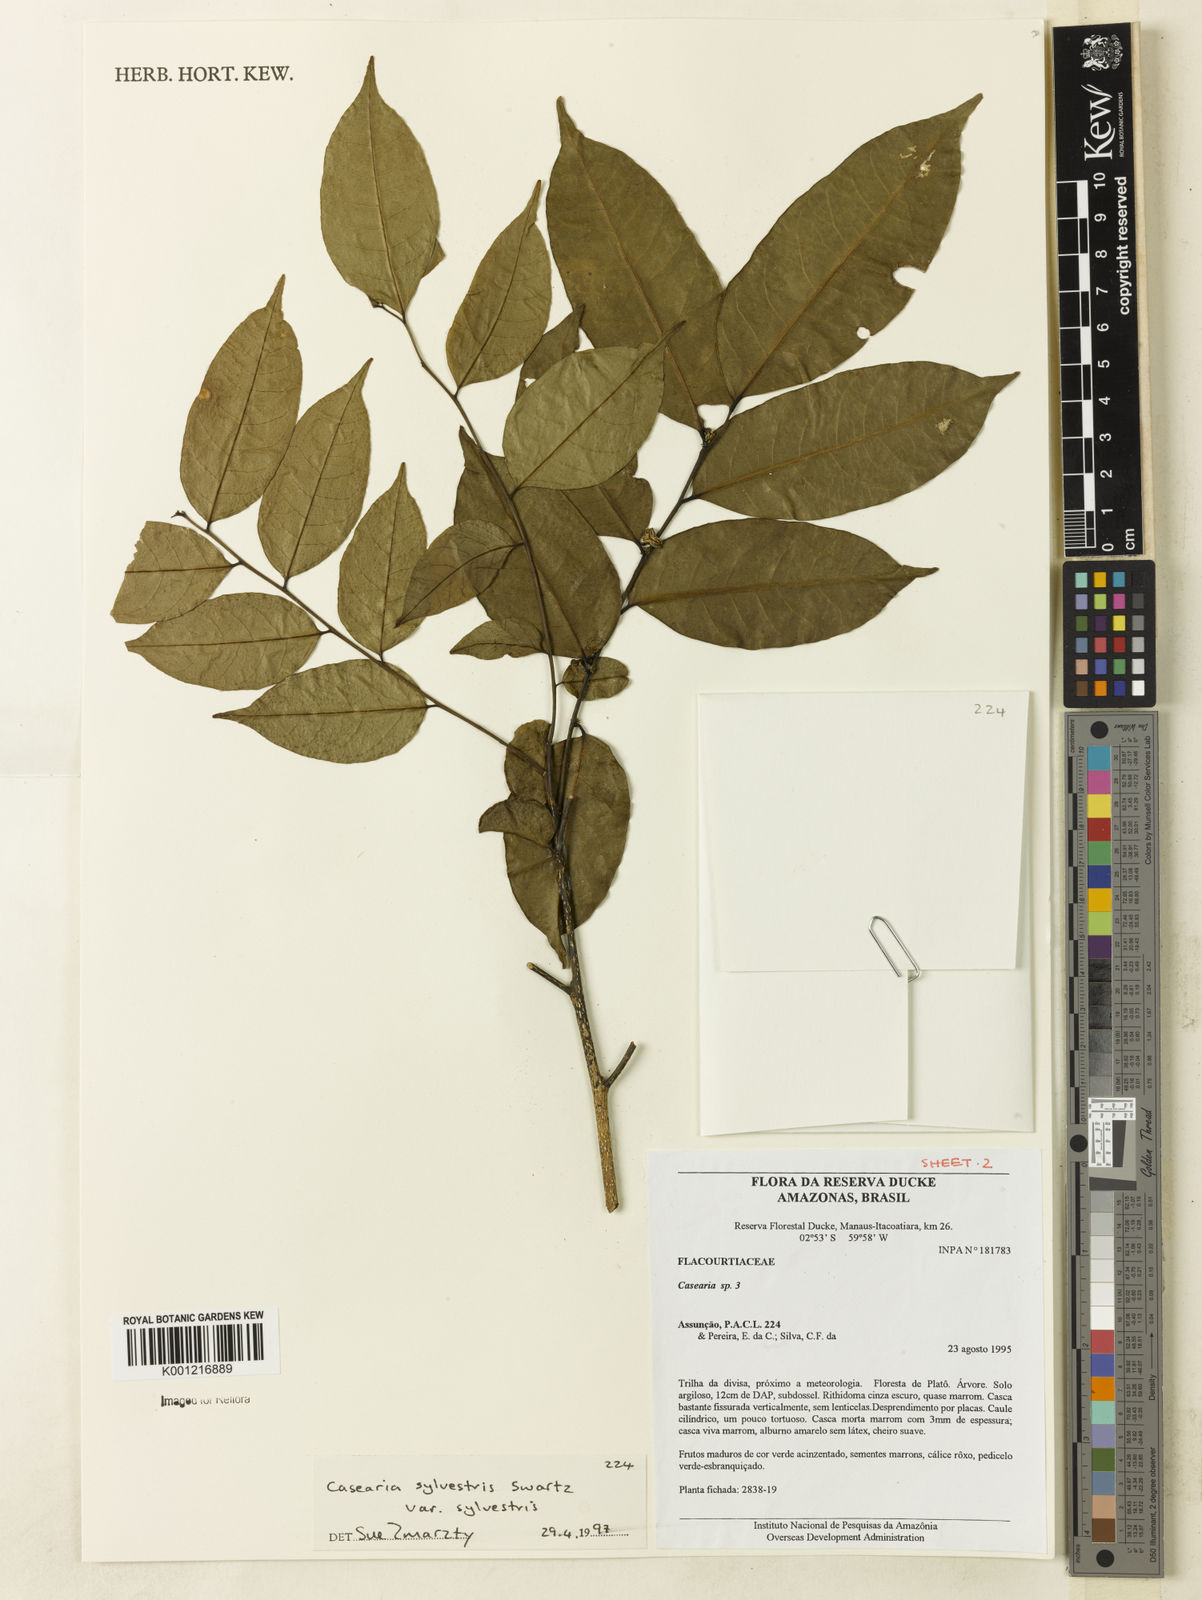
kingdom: Plantae
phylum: Tracheophyta
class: Magnoliopsida
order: Malpighiales
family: Salicaceae
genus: Casearia
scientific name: Casearia sylvestris
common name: Wild sage
